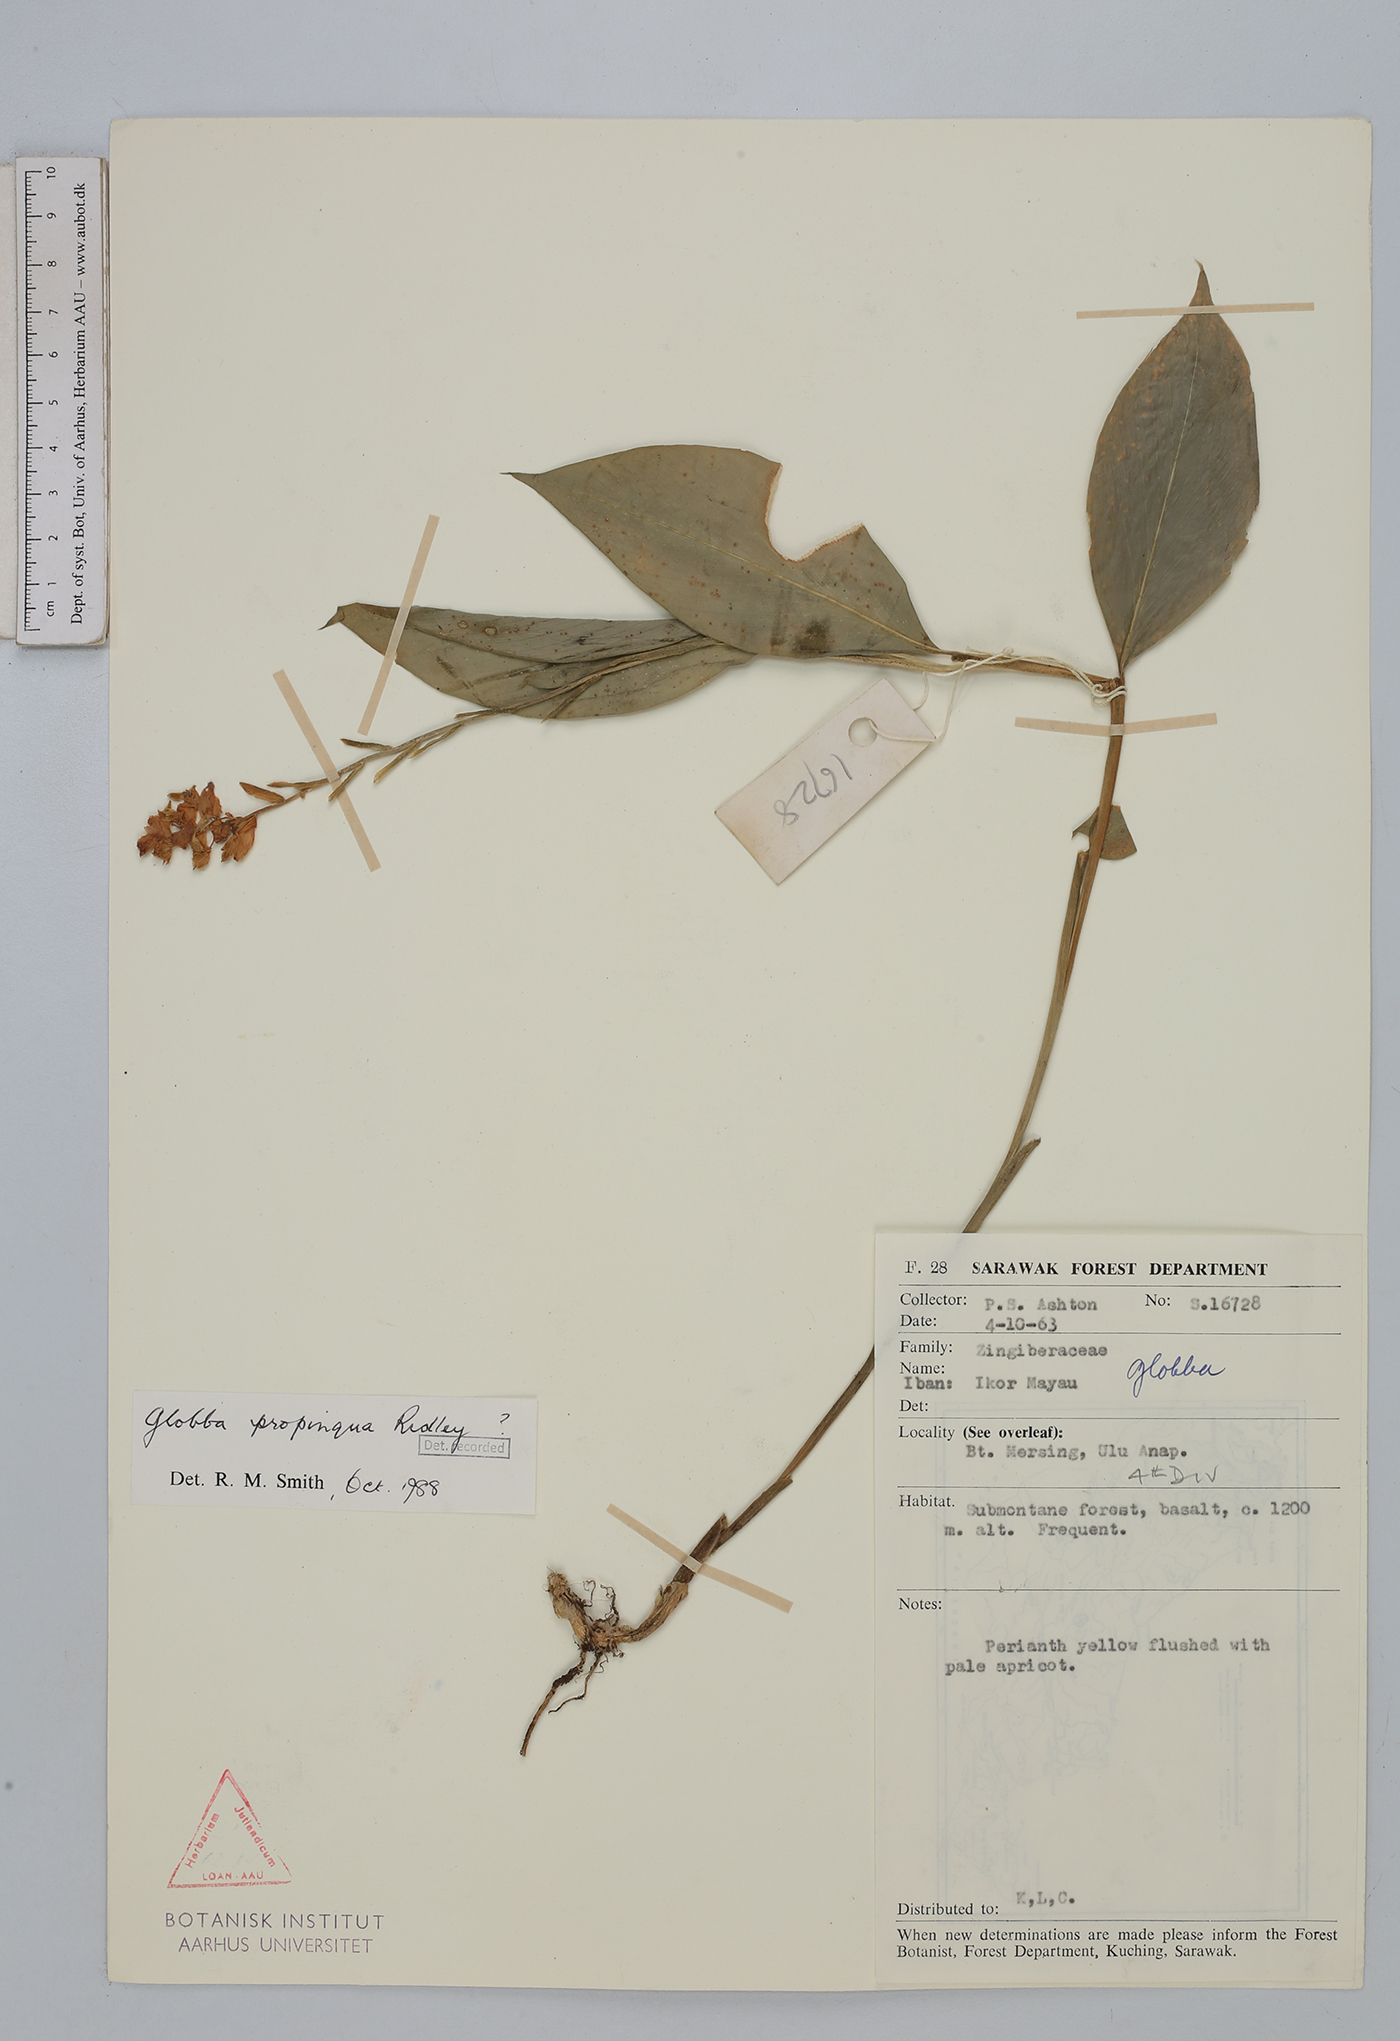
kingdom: Plantae
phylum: Tracheophyta
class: Liliopsida
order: Zingiberales
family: Zingiberaceae
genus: Globba
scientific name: Globba propinqua
